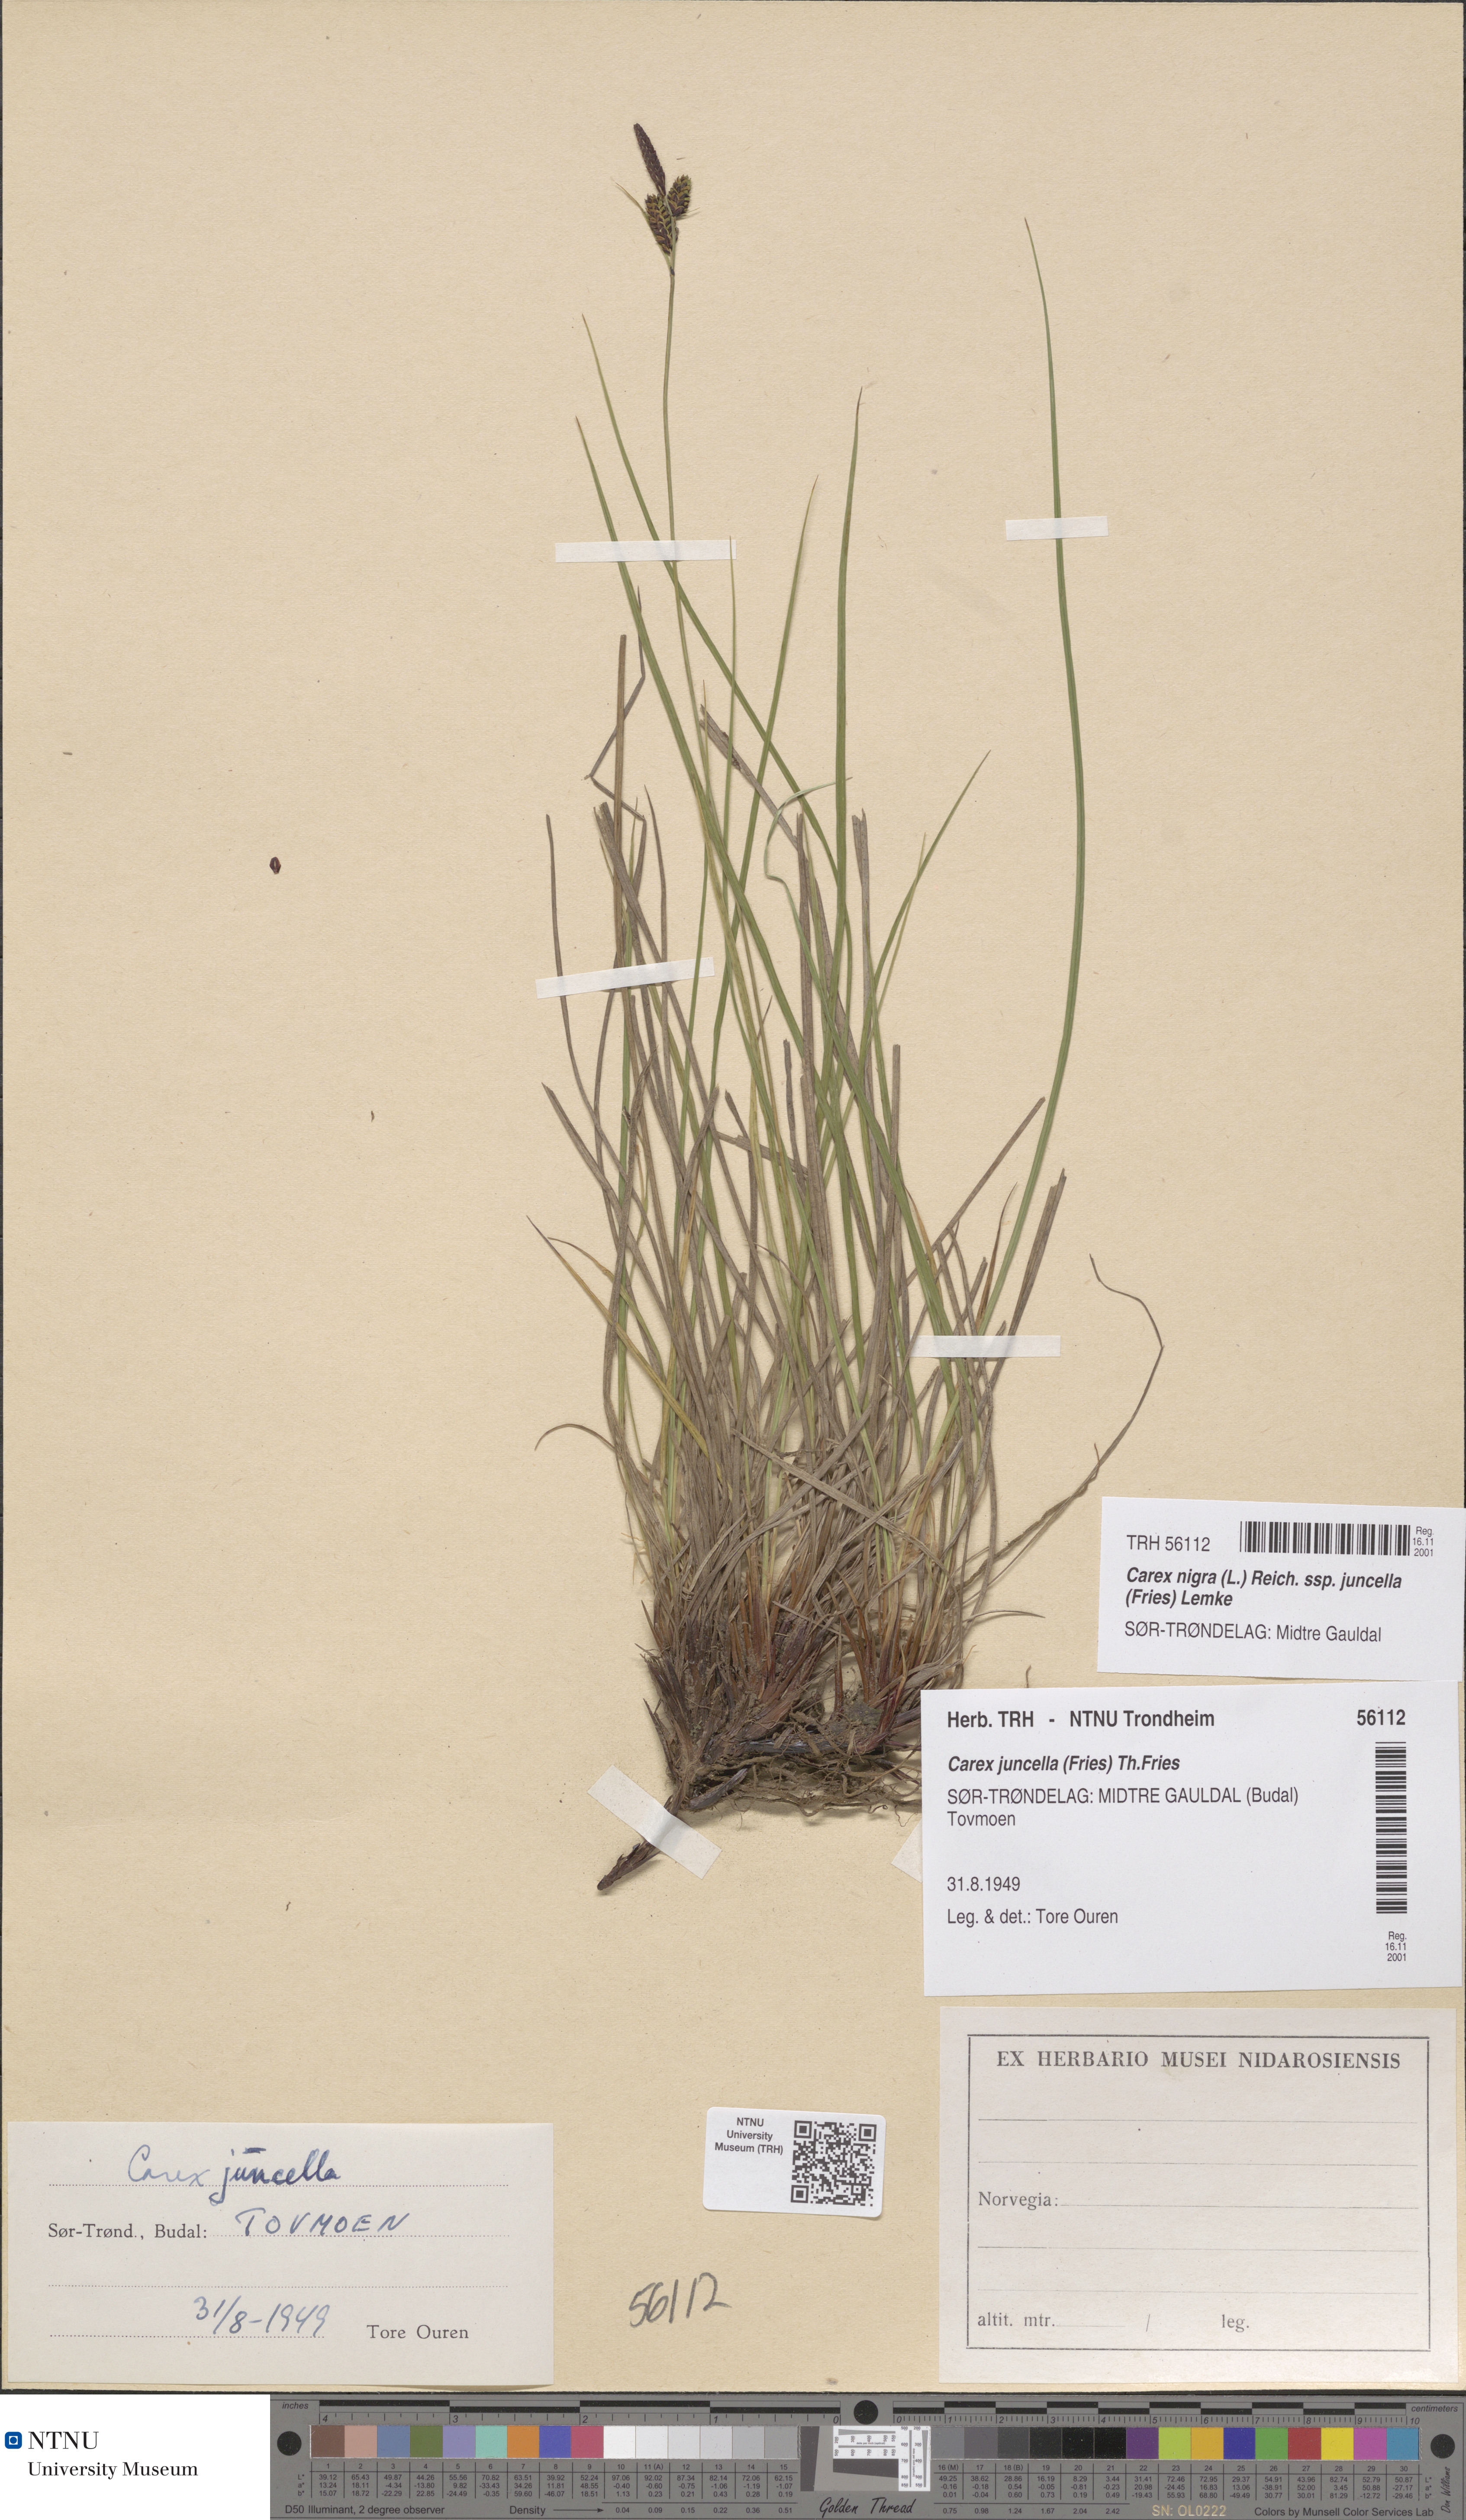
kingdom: Plantae
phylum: Tracheophyta
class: Liliopsida
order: Poales
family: Cyperaceae
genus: Carex
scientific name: Carex nigra
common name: Common sedge
